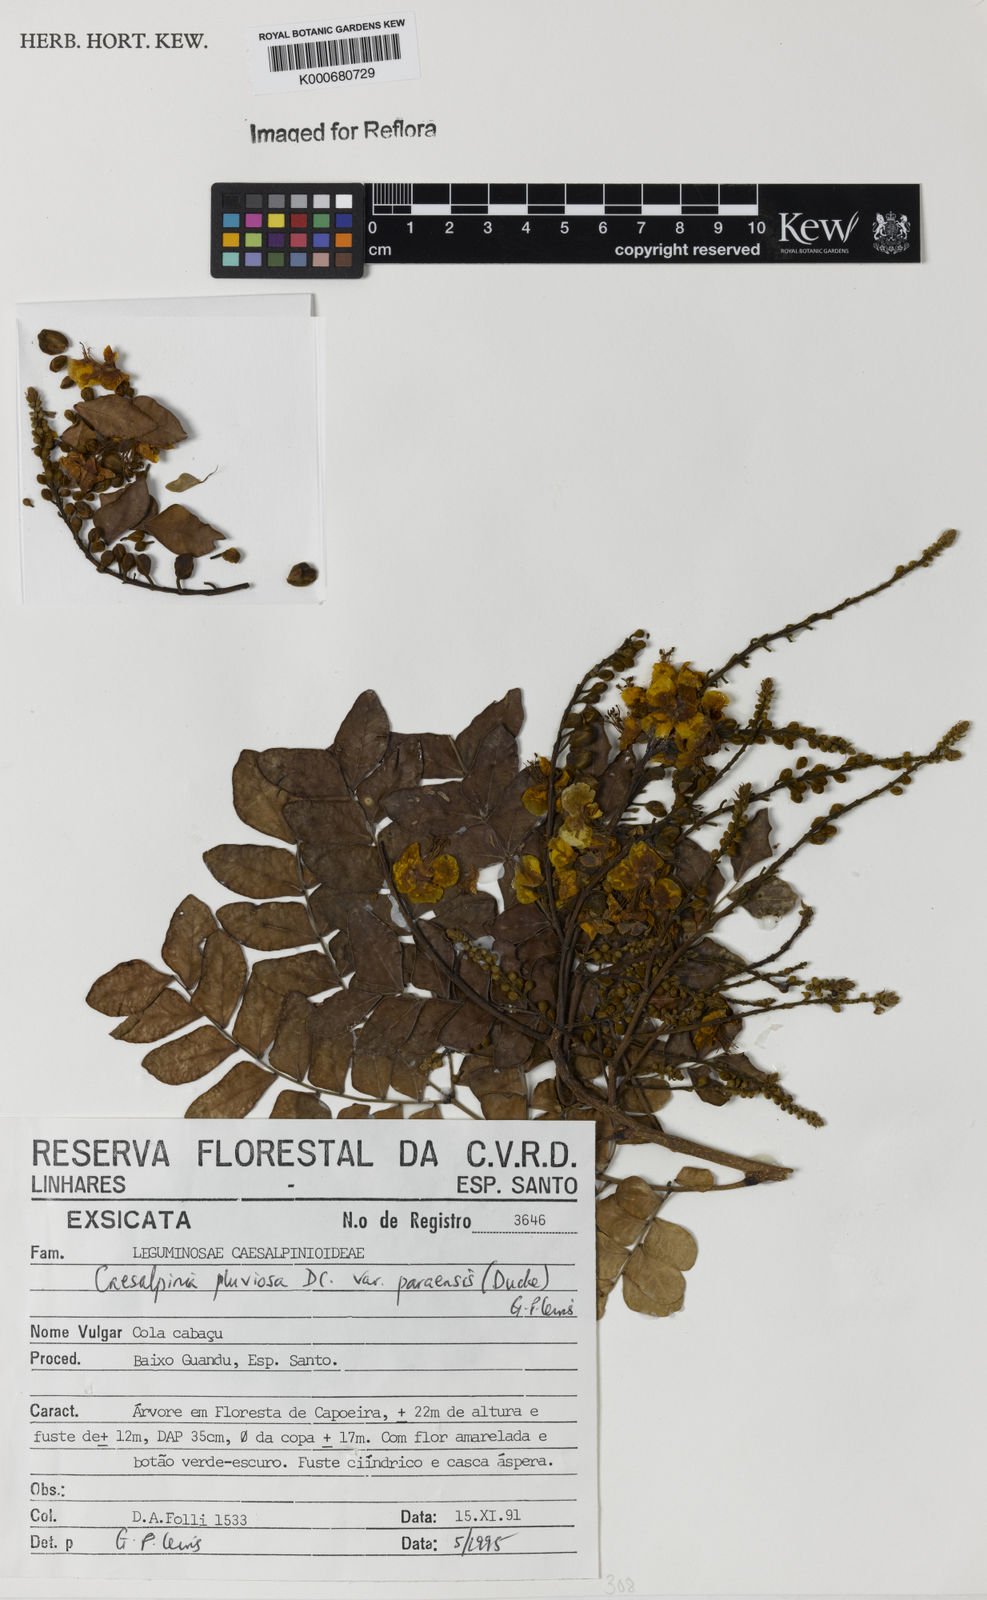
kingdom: Plantae
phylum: Tracheophyta
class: Magnoliopsida
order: Fabales
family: Fabaceae
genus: Cenostigma
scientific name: Cenostigma pluviosum
